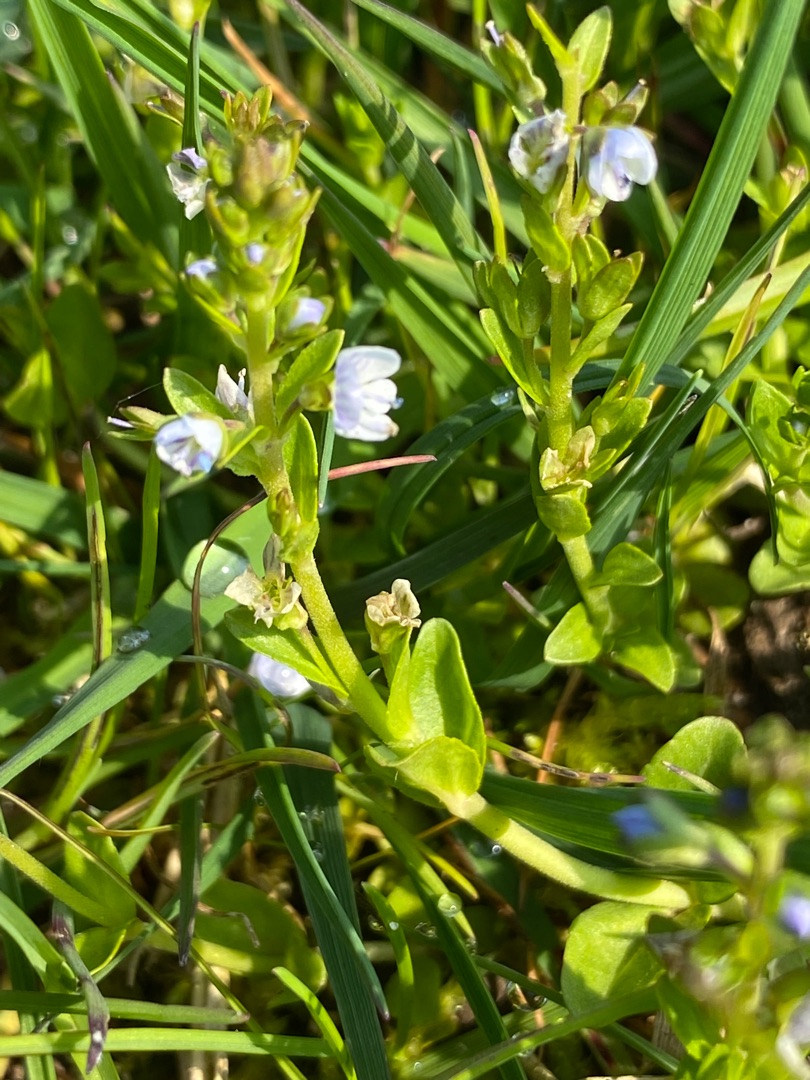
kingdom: Plantae
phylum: Tracheophyta
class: Magnoliopsida
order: Lamiales
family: Plantaginaceae
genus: Veronica
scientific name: Veronica serpyllifolia
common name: Glat ærenpris
